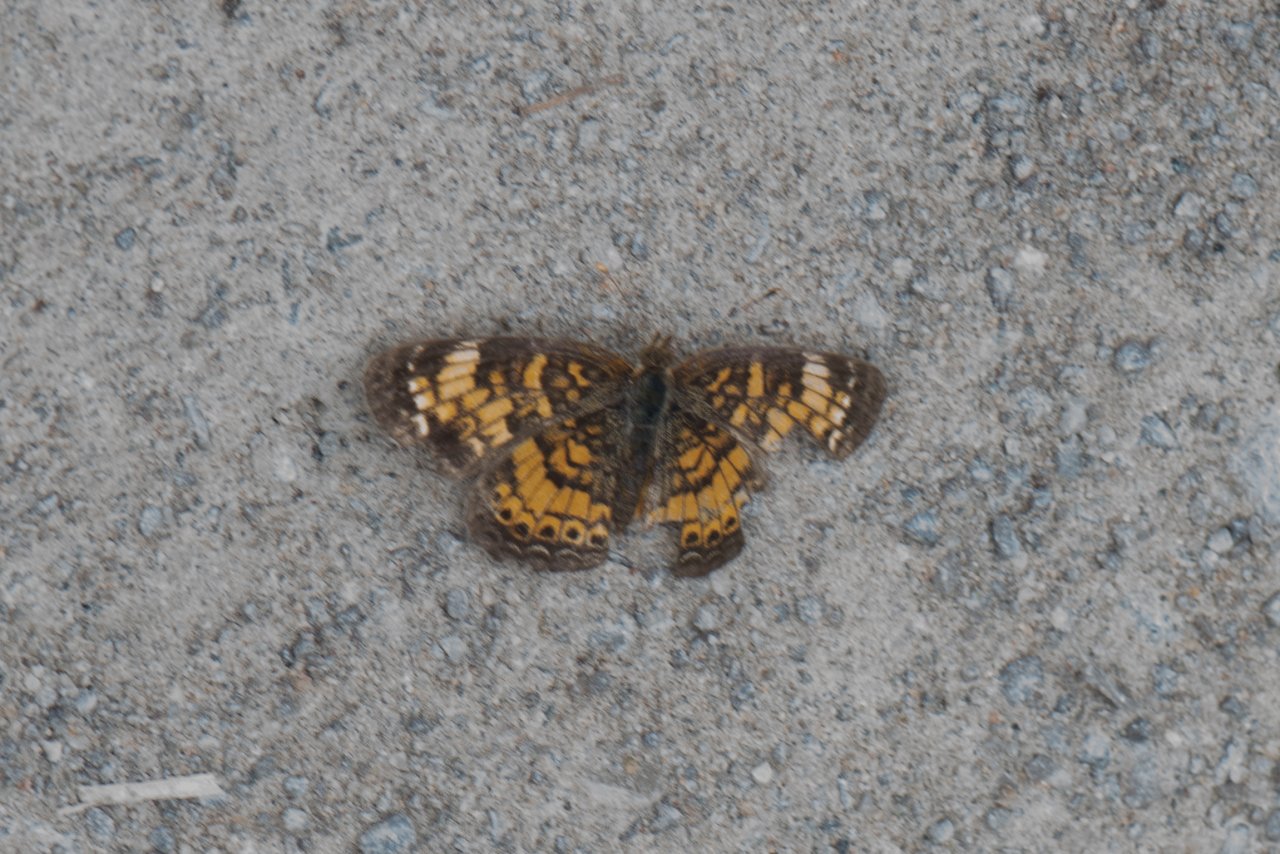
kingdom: Animalia
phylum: Arthropoda
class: Insecta
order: Lepidoptera
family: Nymphalidae
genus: Phyciodes
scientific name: Phyciodes tharos
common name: Northern Crescent
